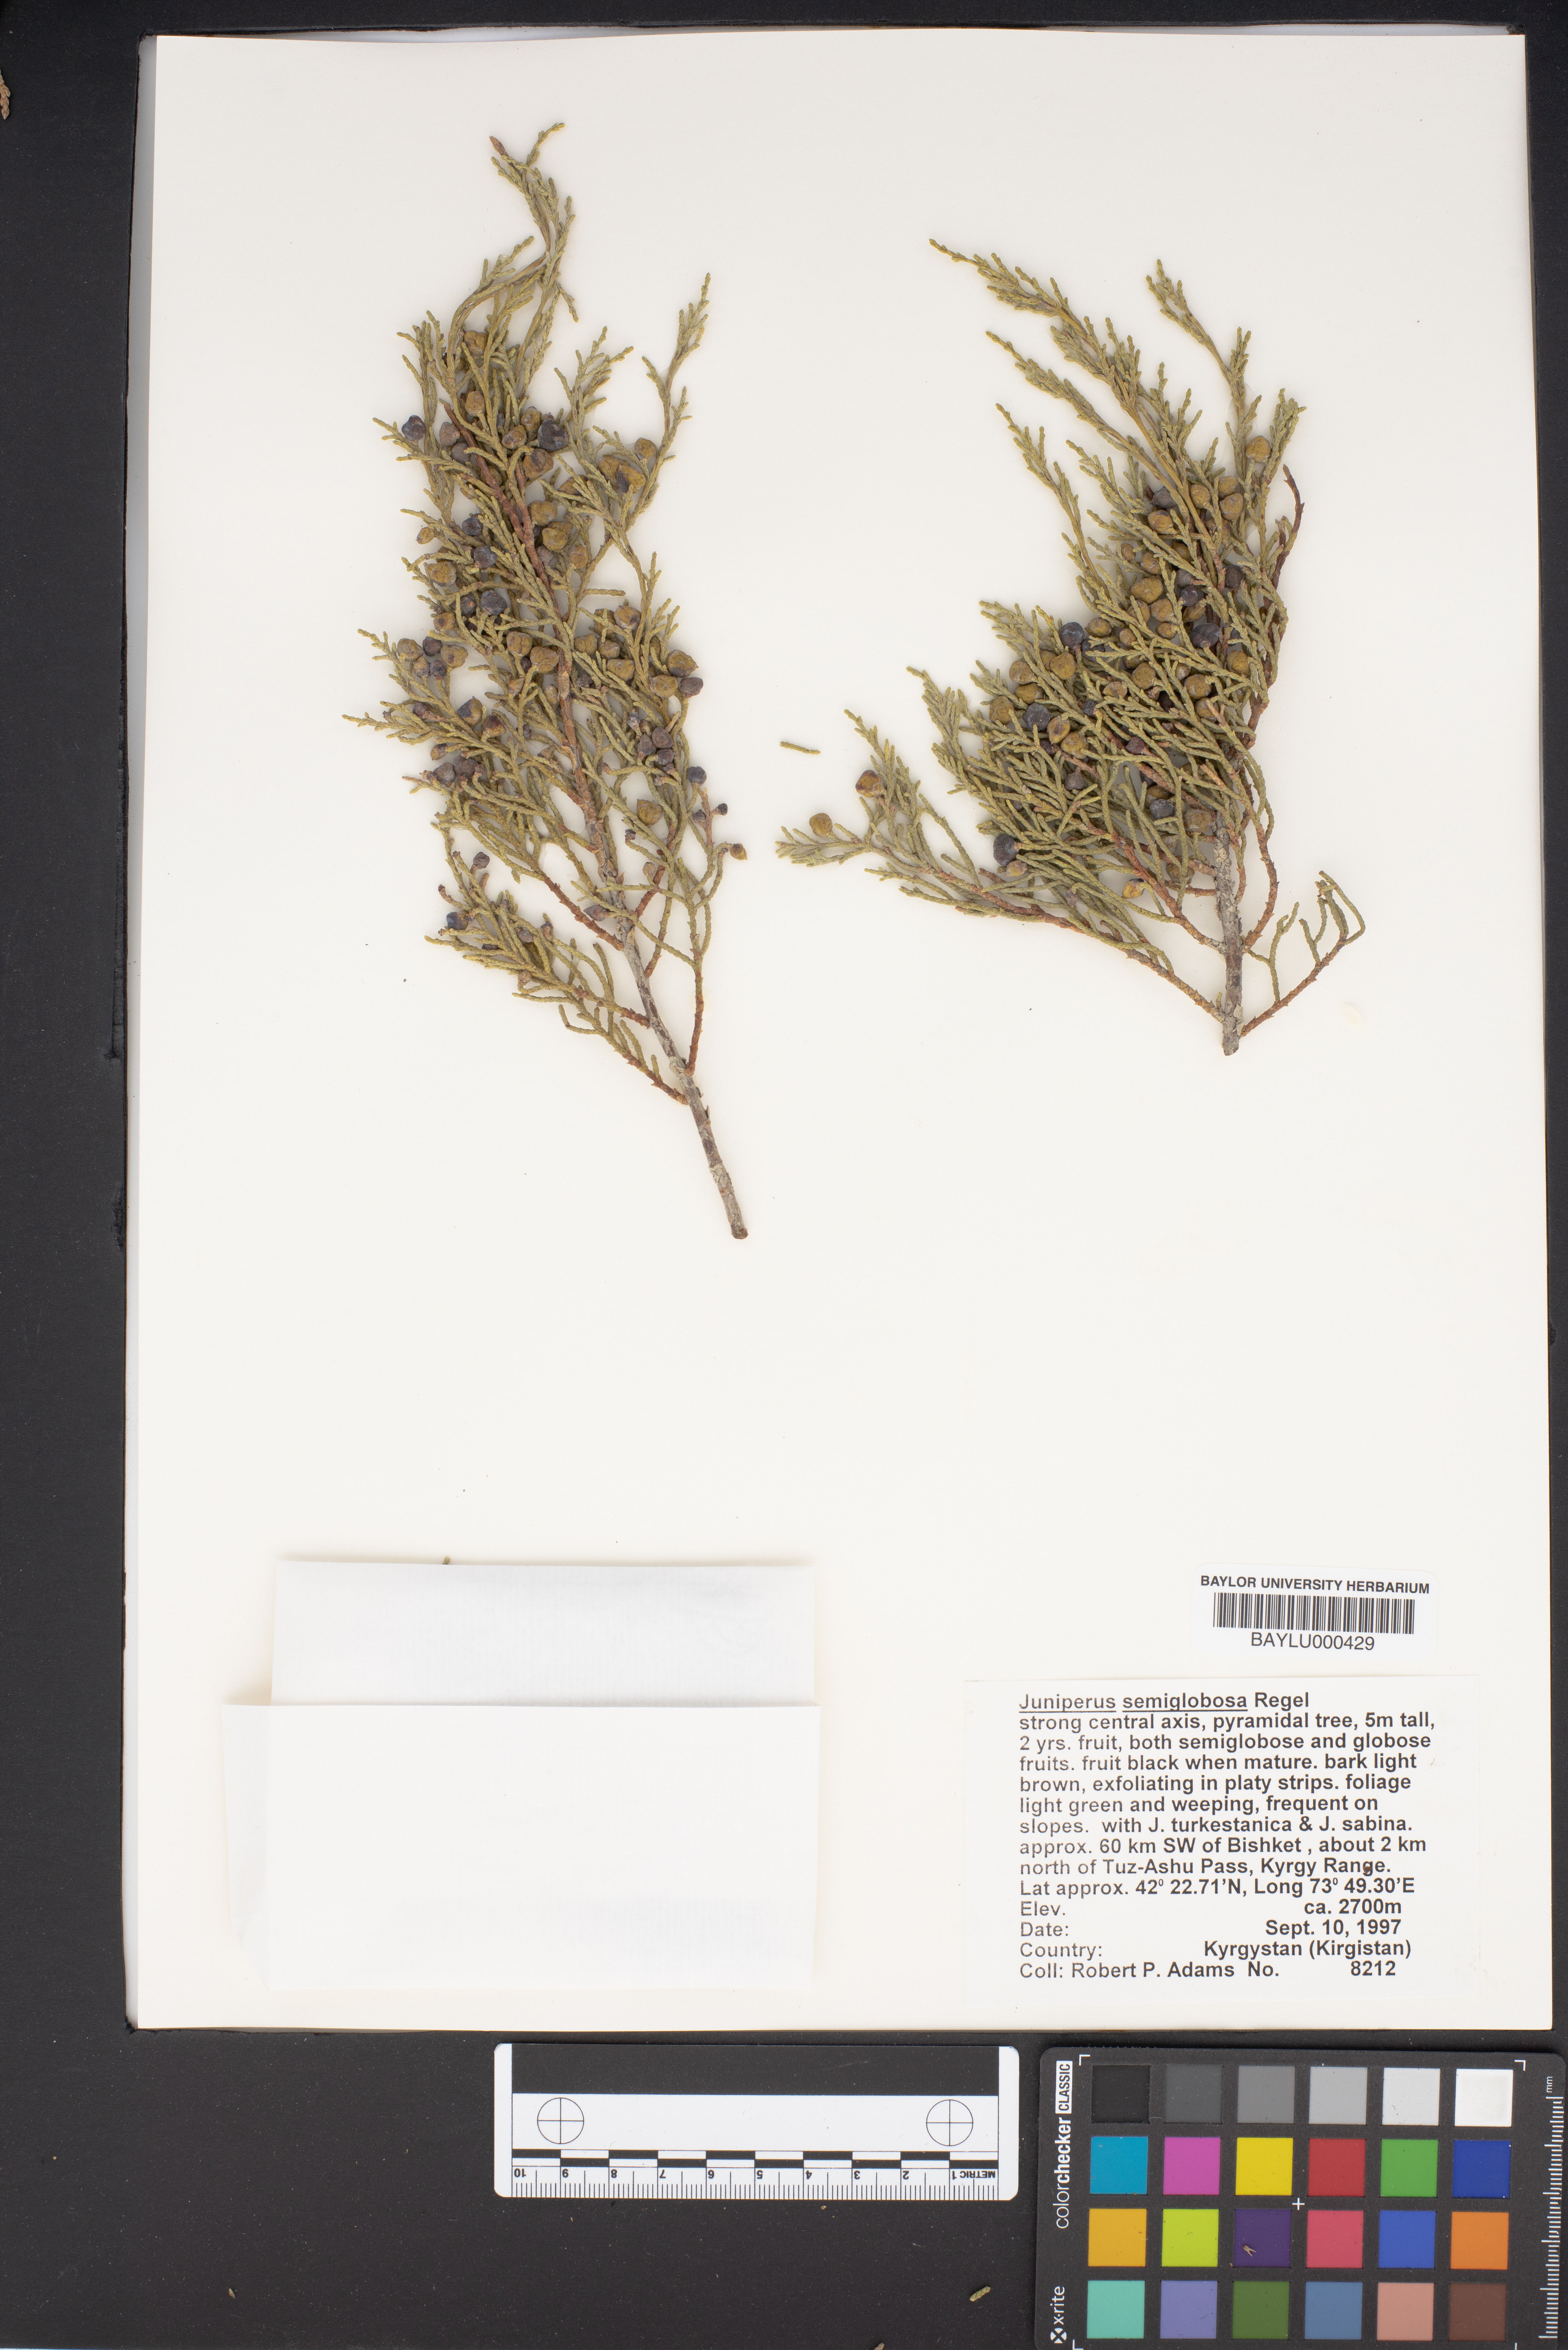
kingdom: Plantae
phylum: Tracheophyta
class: Pinopsida
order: Pinales
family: Cupressaceae
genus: Juniperus
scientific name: Juniperus semiglobosa
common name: Pencil cedar
